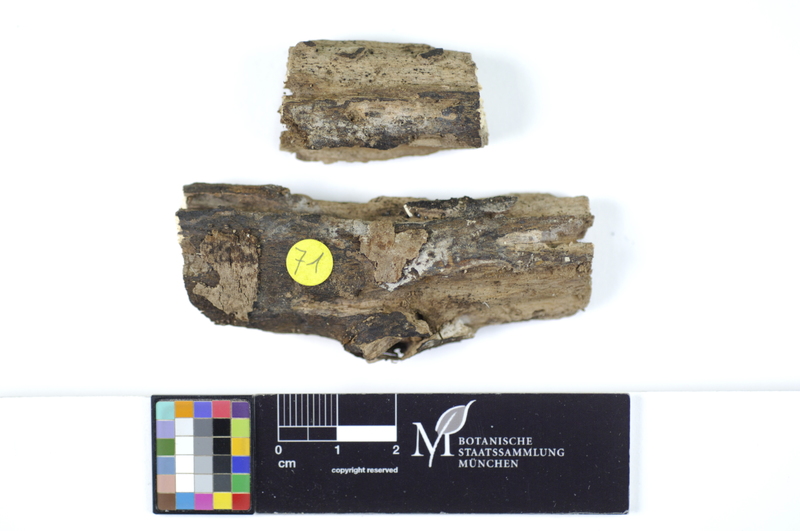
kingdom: Fungi
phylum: Basidiomycota
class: Agaricomycetes
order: Hymenochaetales
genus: Kurtia
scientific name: Kurtia macedonica
